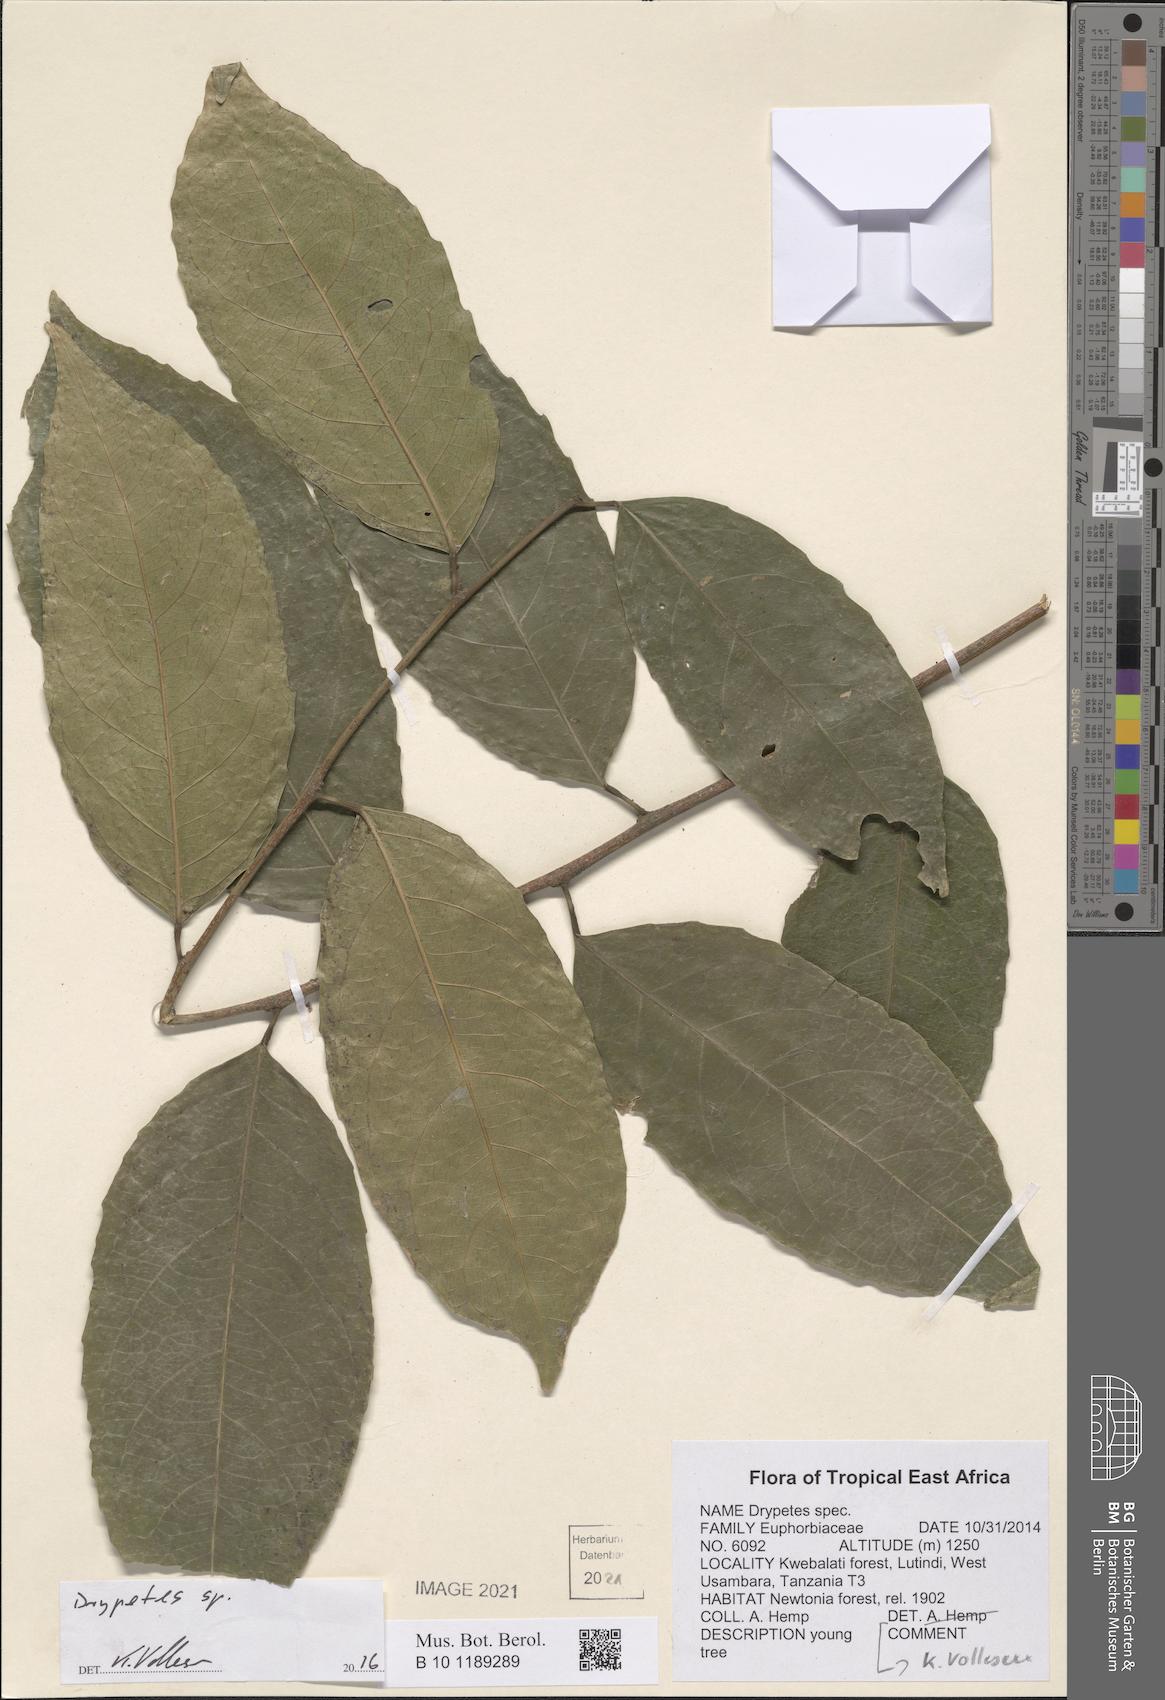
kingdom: Plantae
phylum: Tracheophyta
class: Magnoliopsida
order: Malpighiales
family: Putranjivaceae
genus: Drypetes
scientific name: Drypetes
